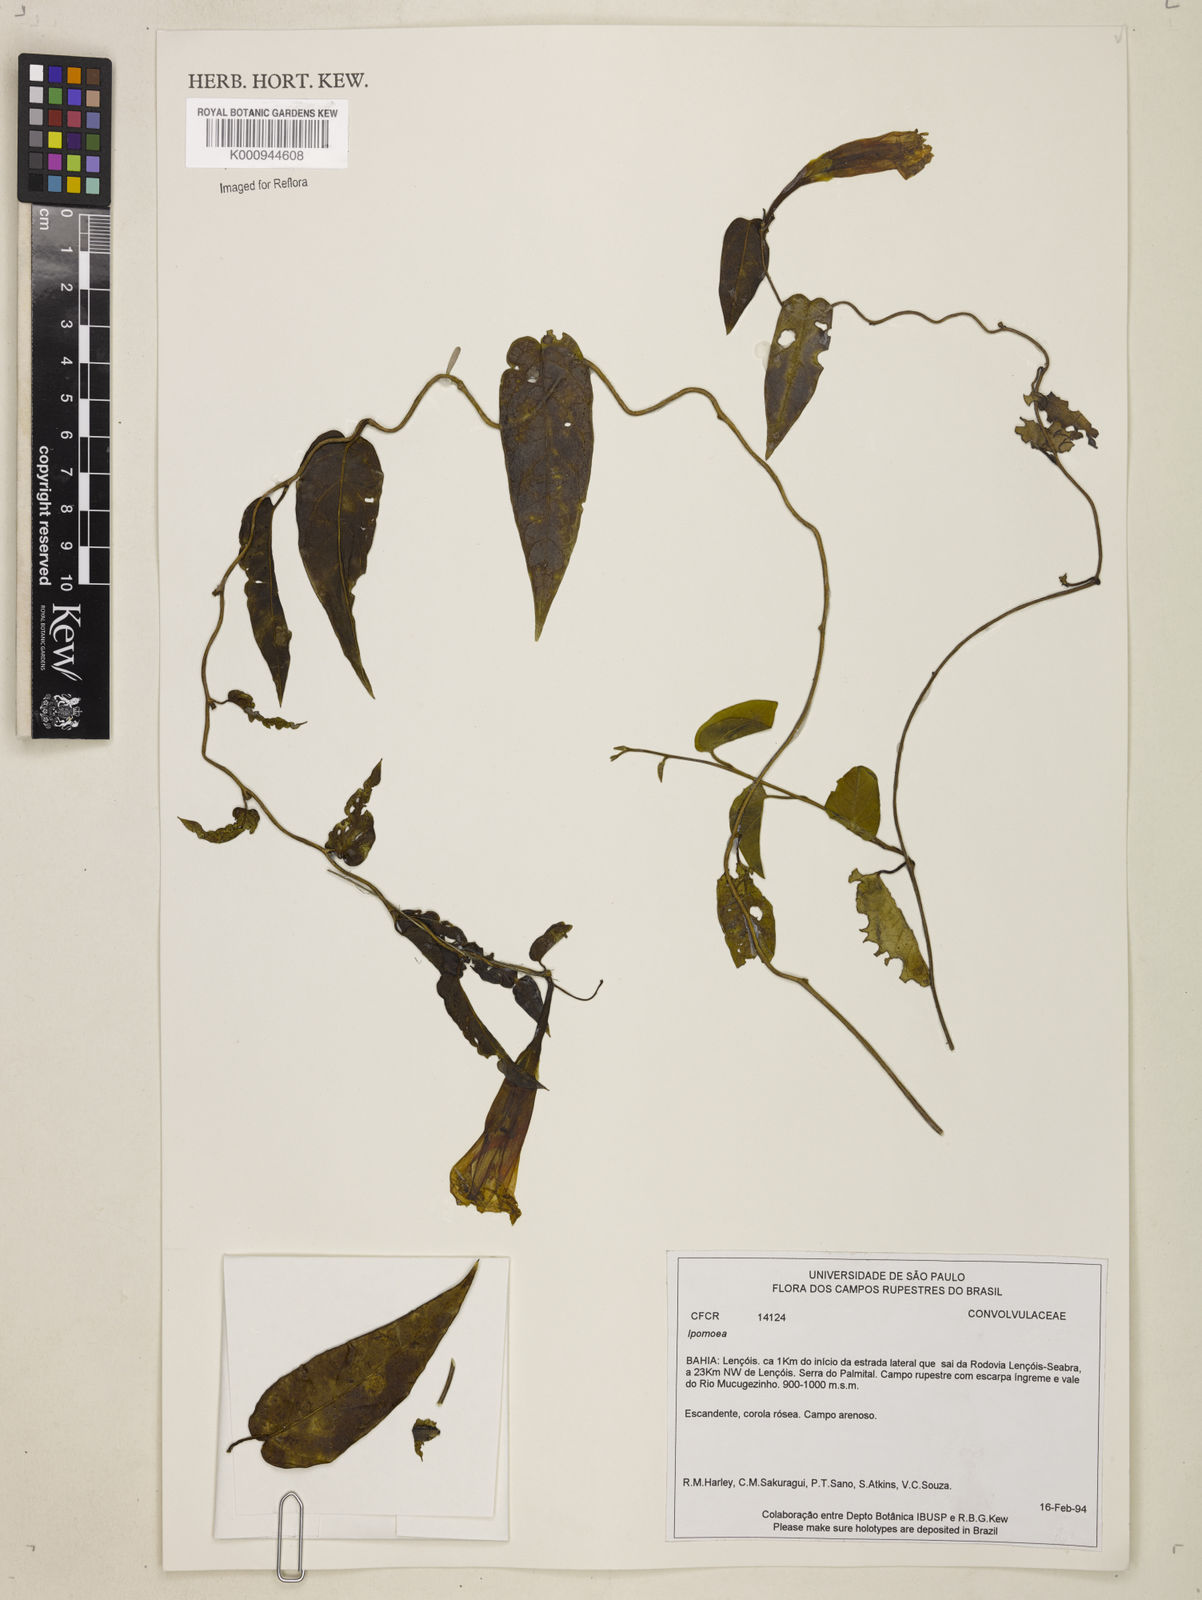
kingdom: Plantae
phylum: Tracheophyta
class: Magnoliopsida
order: Solanales
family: Convolvulaceae
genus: Ipomoea
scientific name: Ipomoea chapadensis
